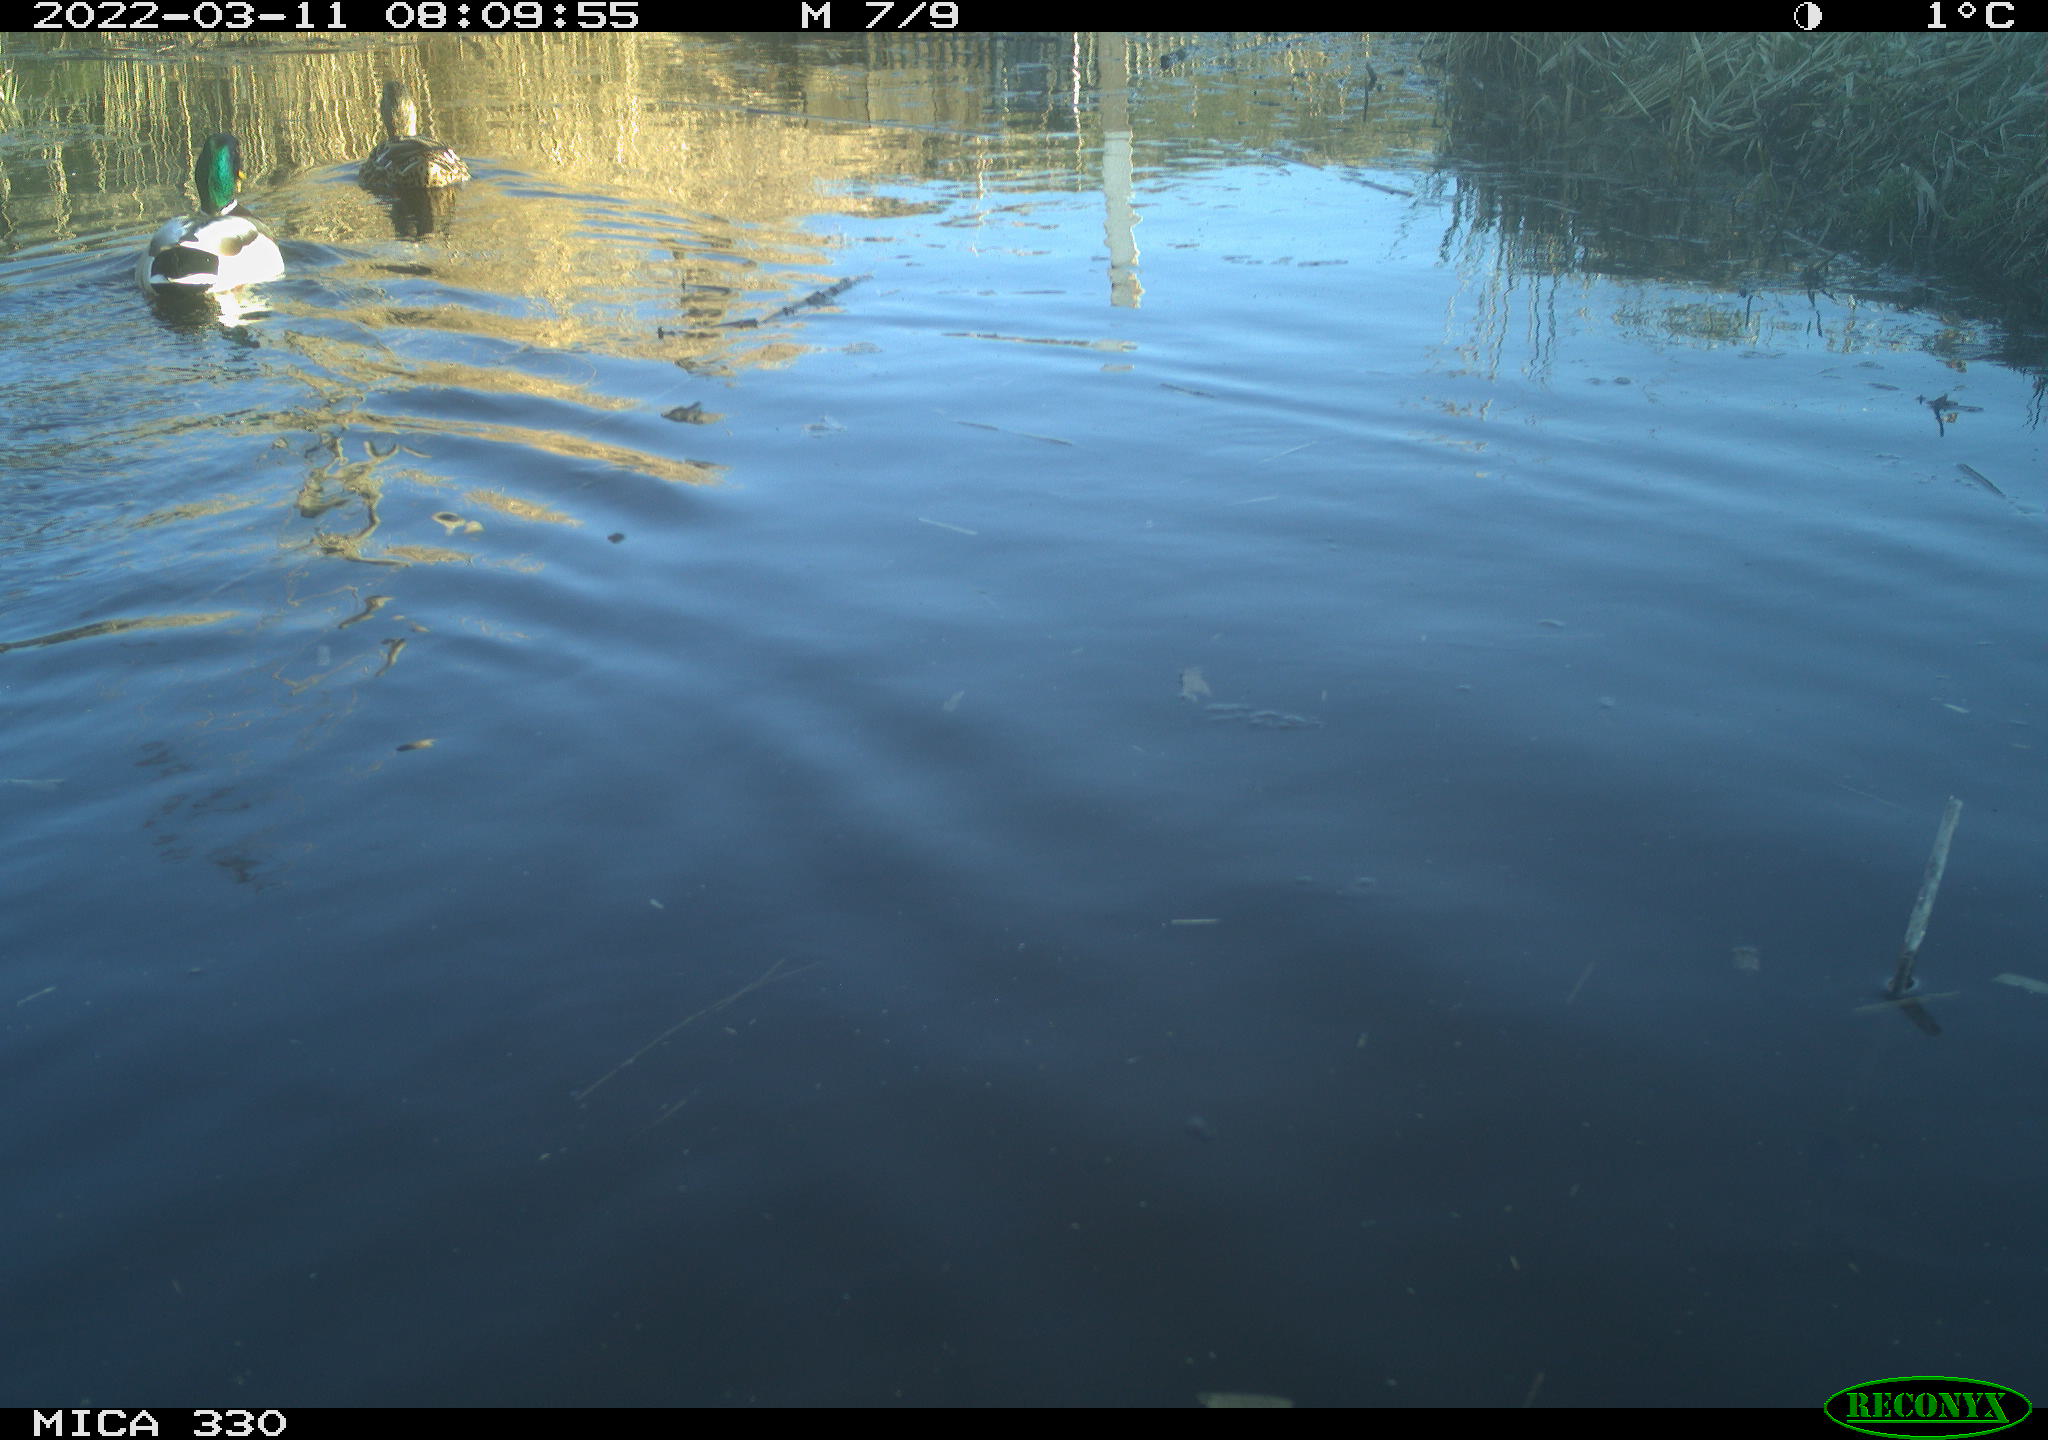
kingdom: Animalia
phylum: Chordata
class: Aves
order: Anseriformes
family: Anatidae
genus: Anas
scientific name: Anas platyrhynchos
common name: Mallard
